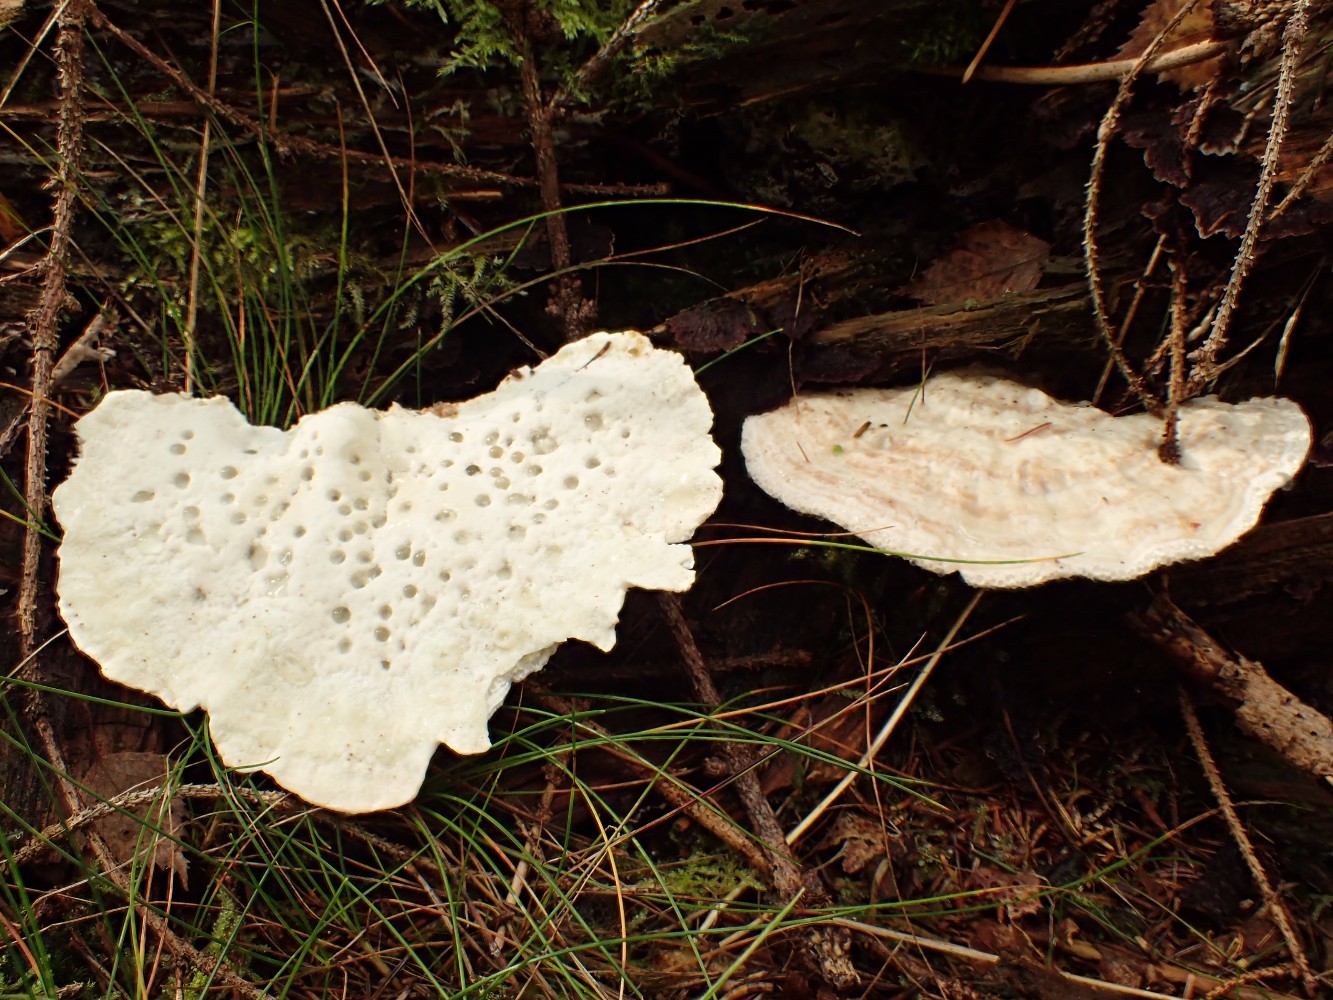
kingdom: Fungi
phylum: Basidiomycota
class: Agaricomycetes
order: Polyporales
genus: Calcipostia
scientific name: Calcipostia guttulata
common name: dråbe-kødporesvamp
